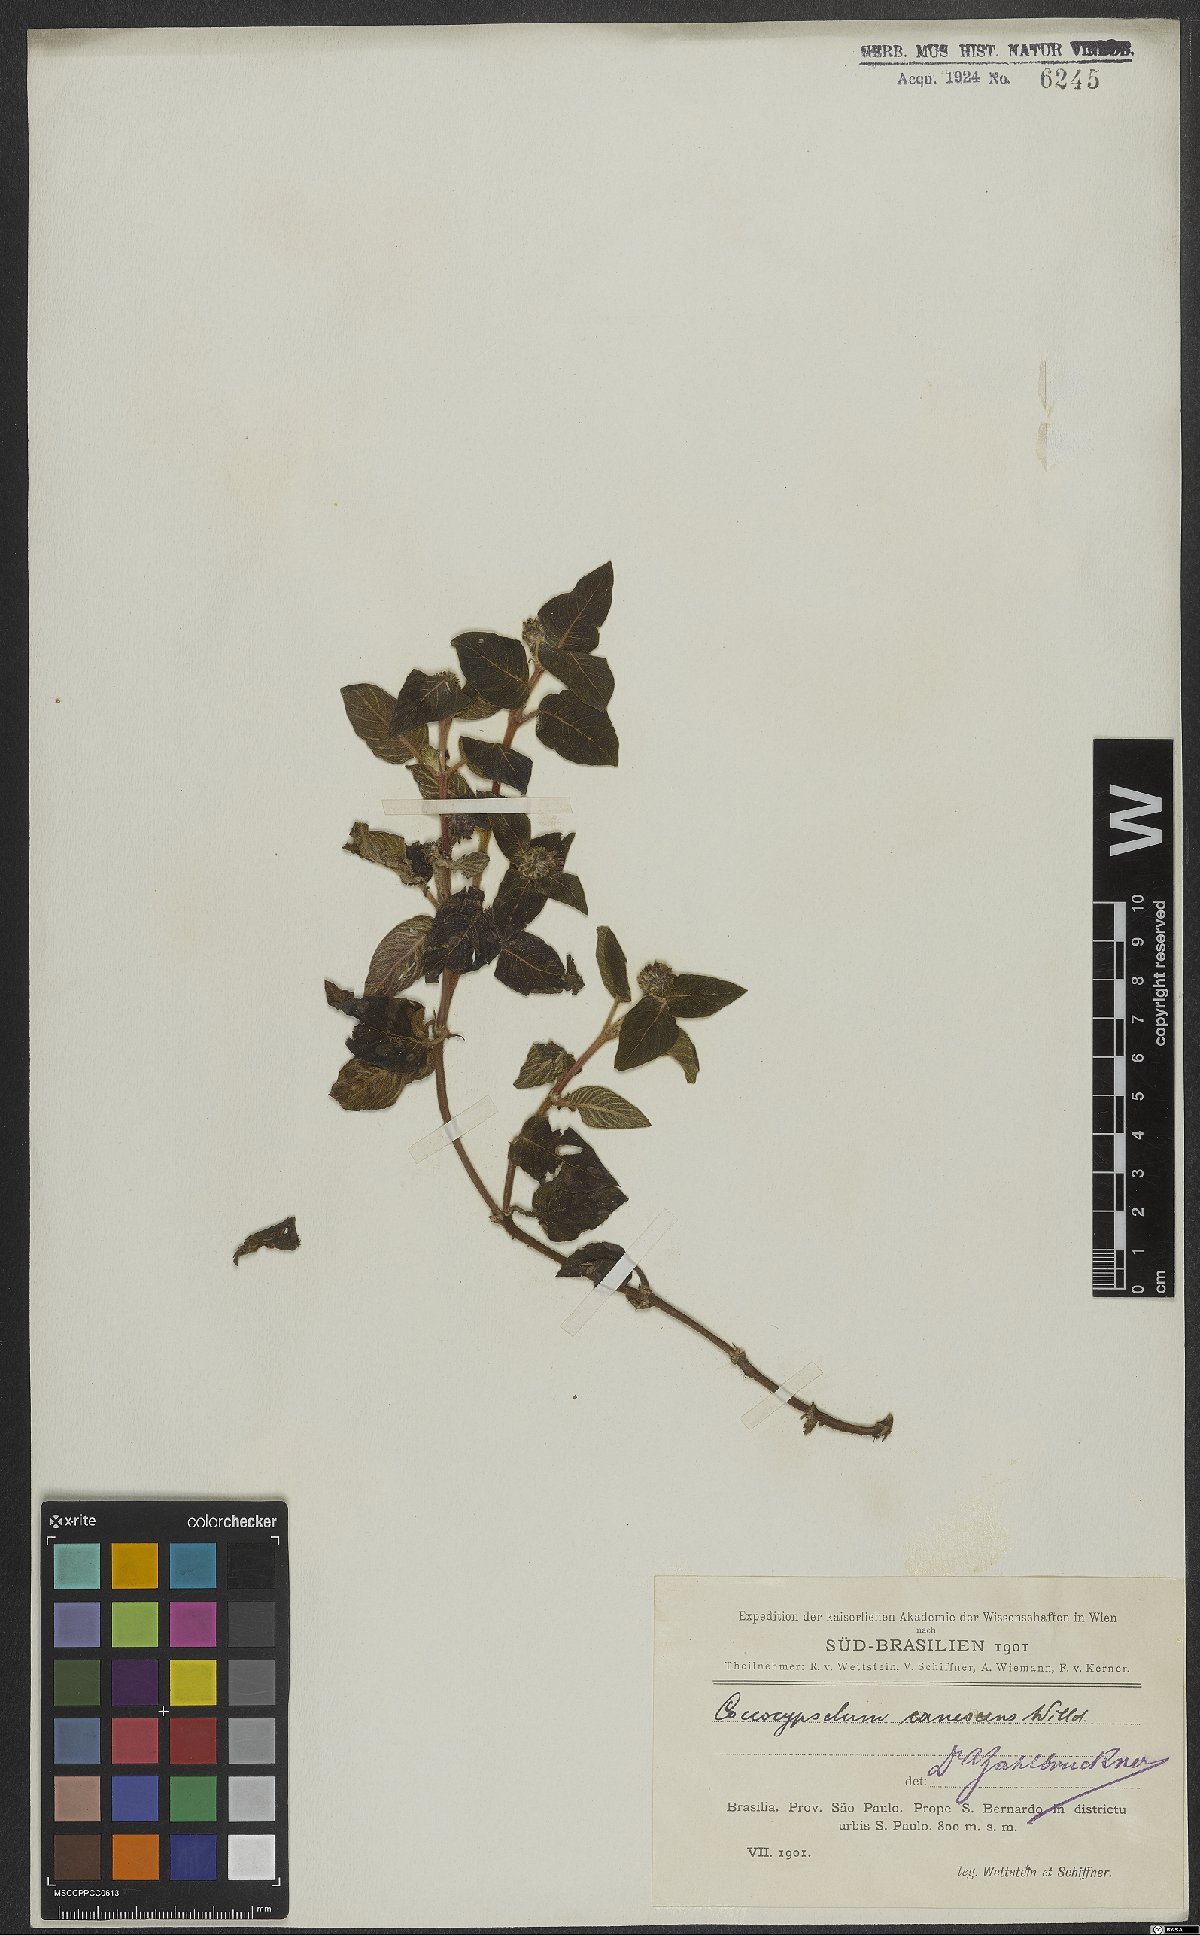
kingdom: Plantae
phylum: Tracheophyta
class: Magnoliopsida
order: Gentianales
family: Rubiaceae
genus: Coccocypselum
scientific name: Coccocypselum lanceolatum
